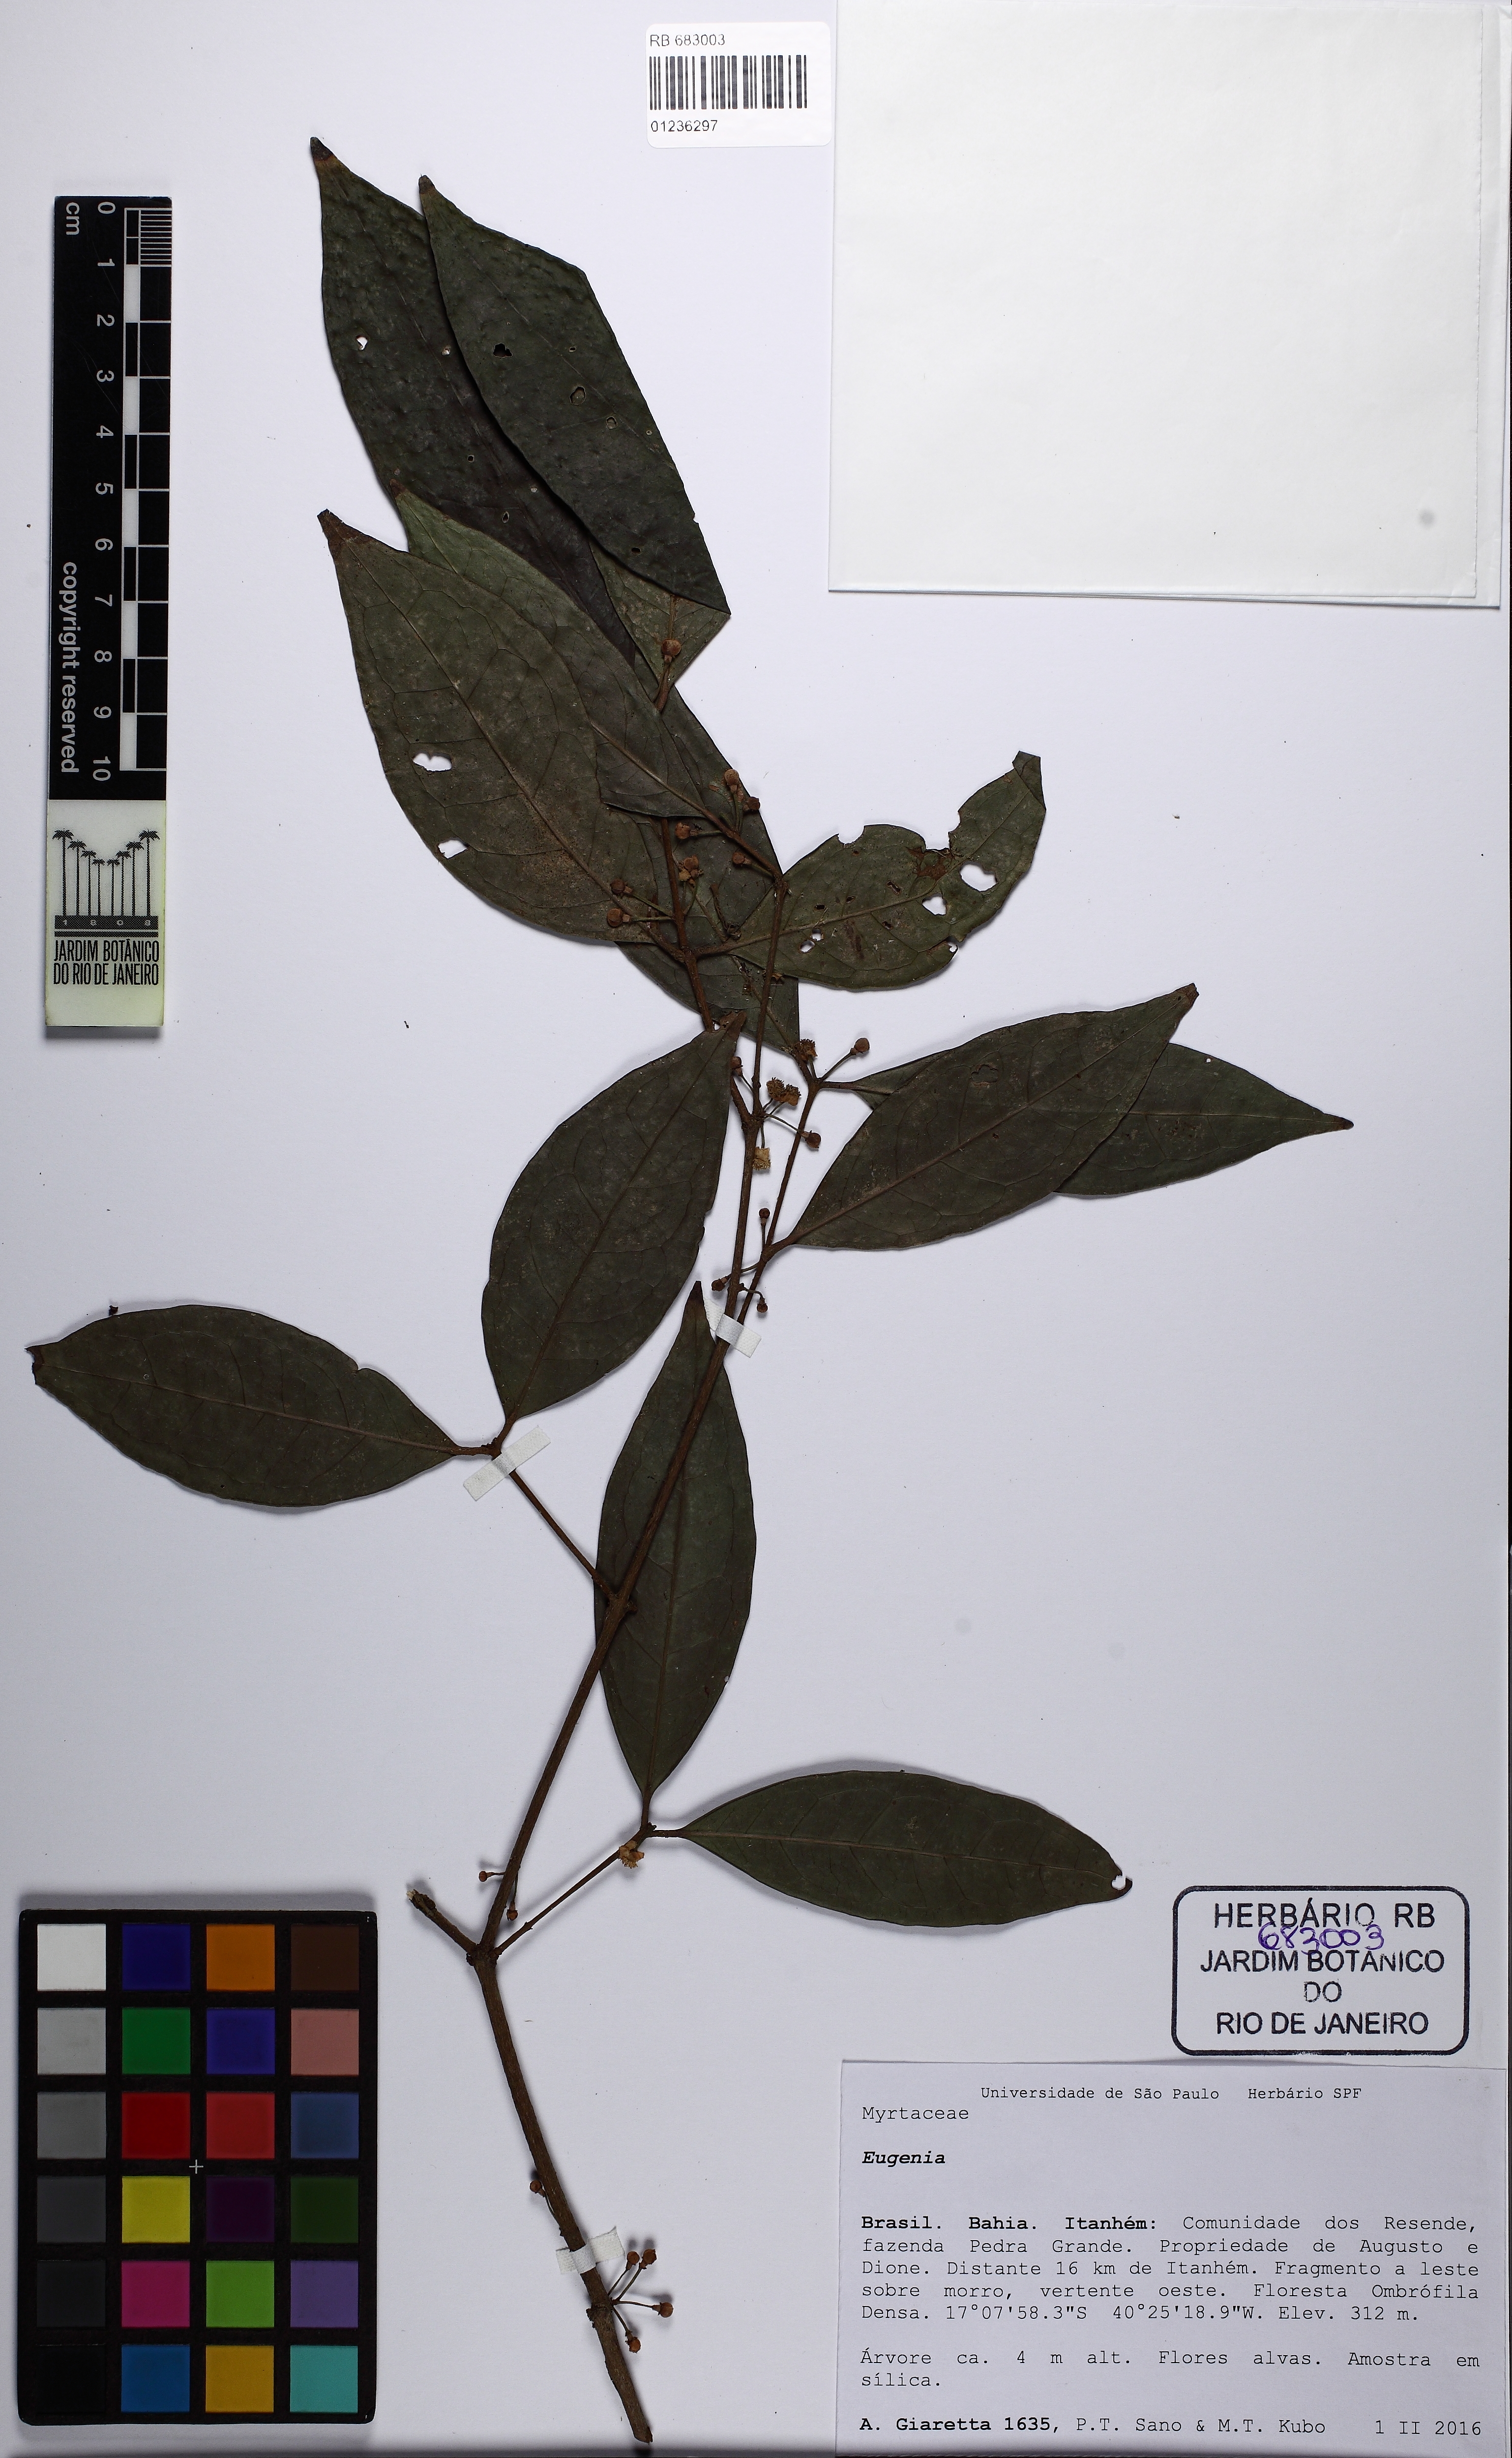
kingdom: Plantae
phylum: Tracheophyta
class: Magnoliopsida
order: Myrtales
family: Myrtaceae
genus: Eugenia
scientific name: Eugenia cymatodes
